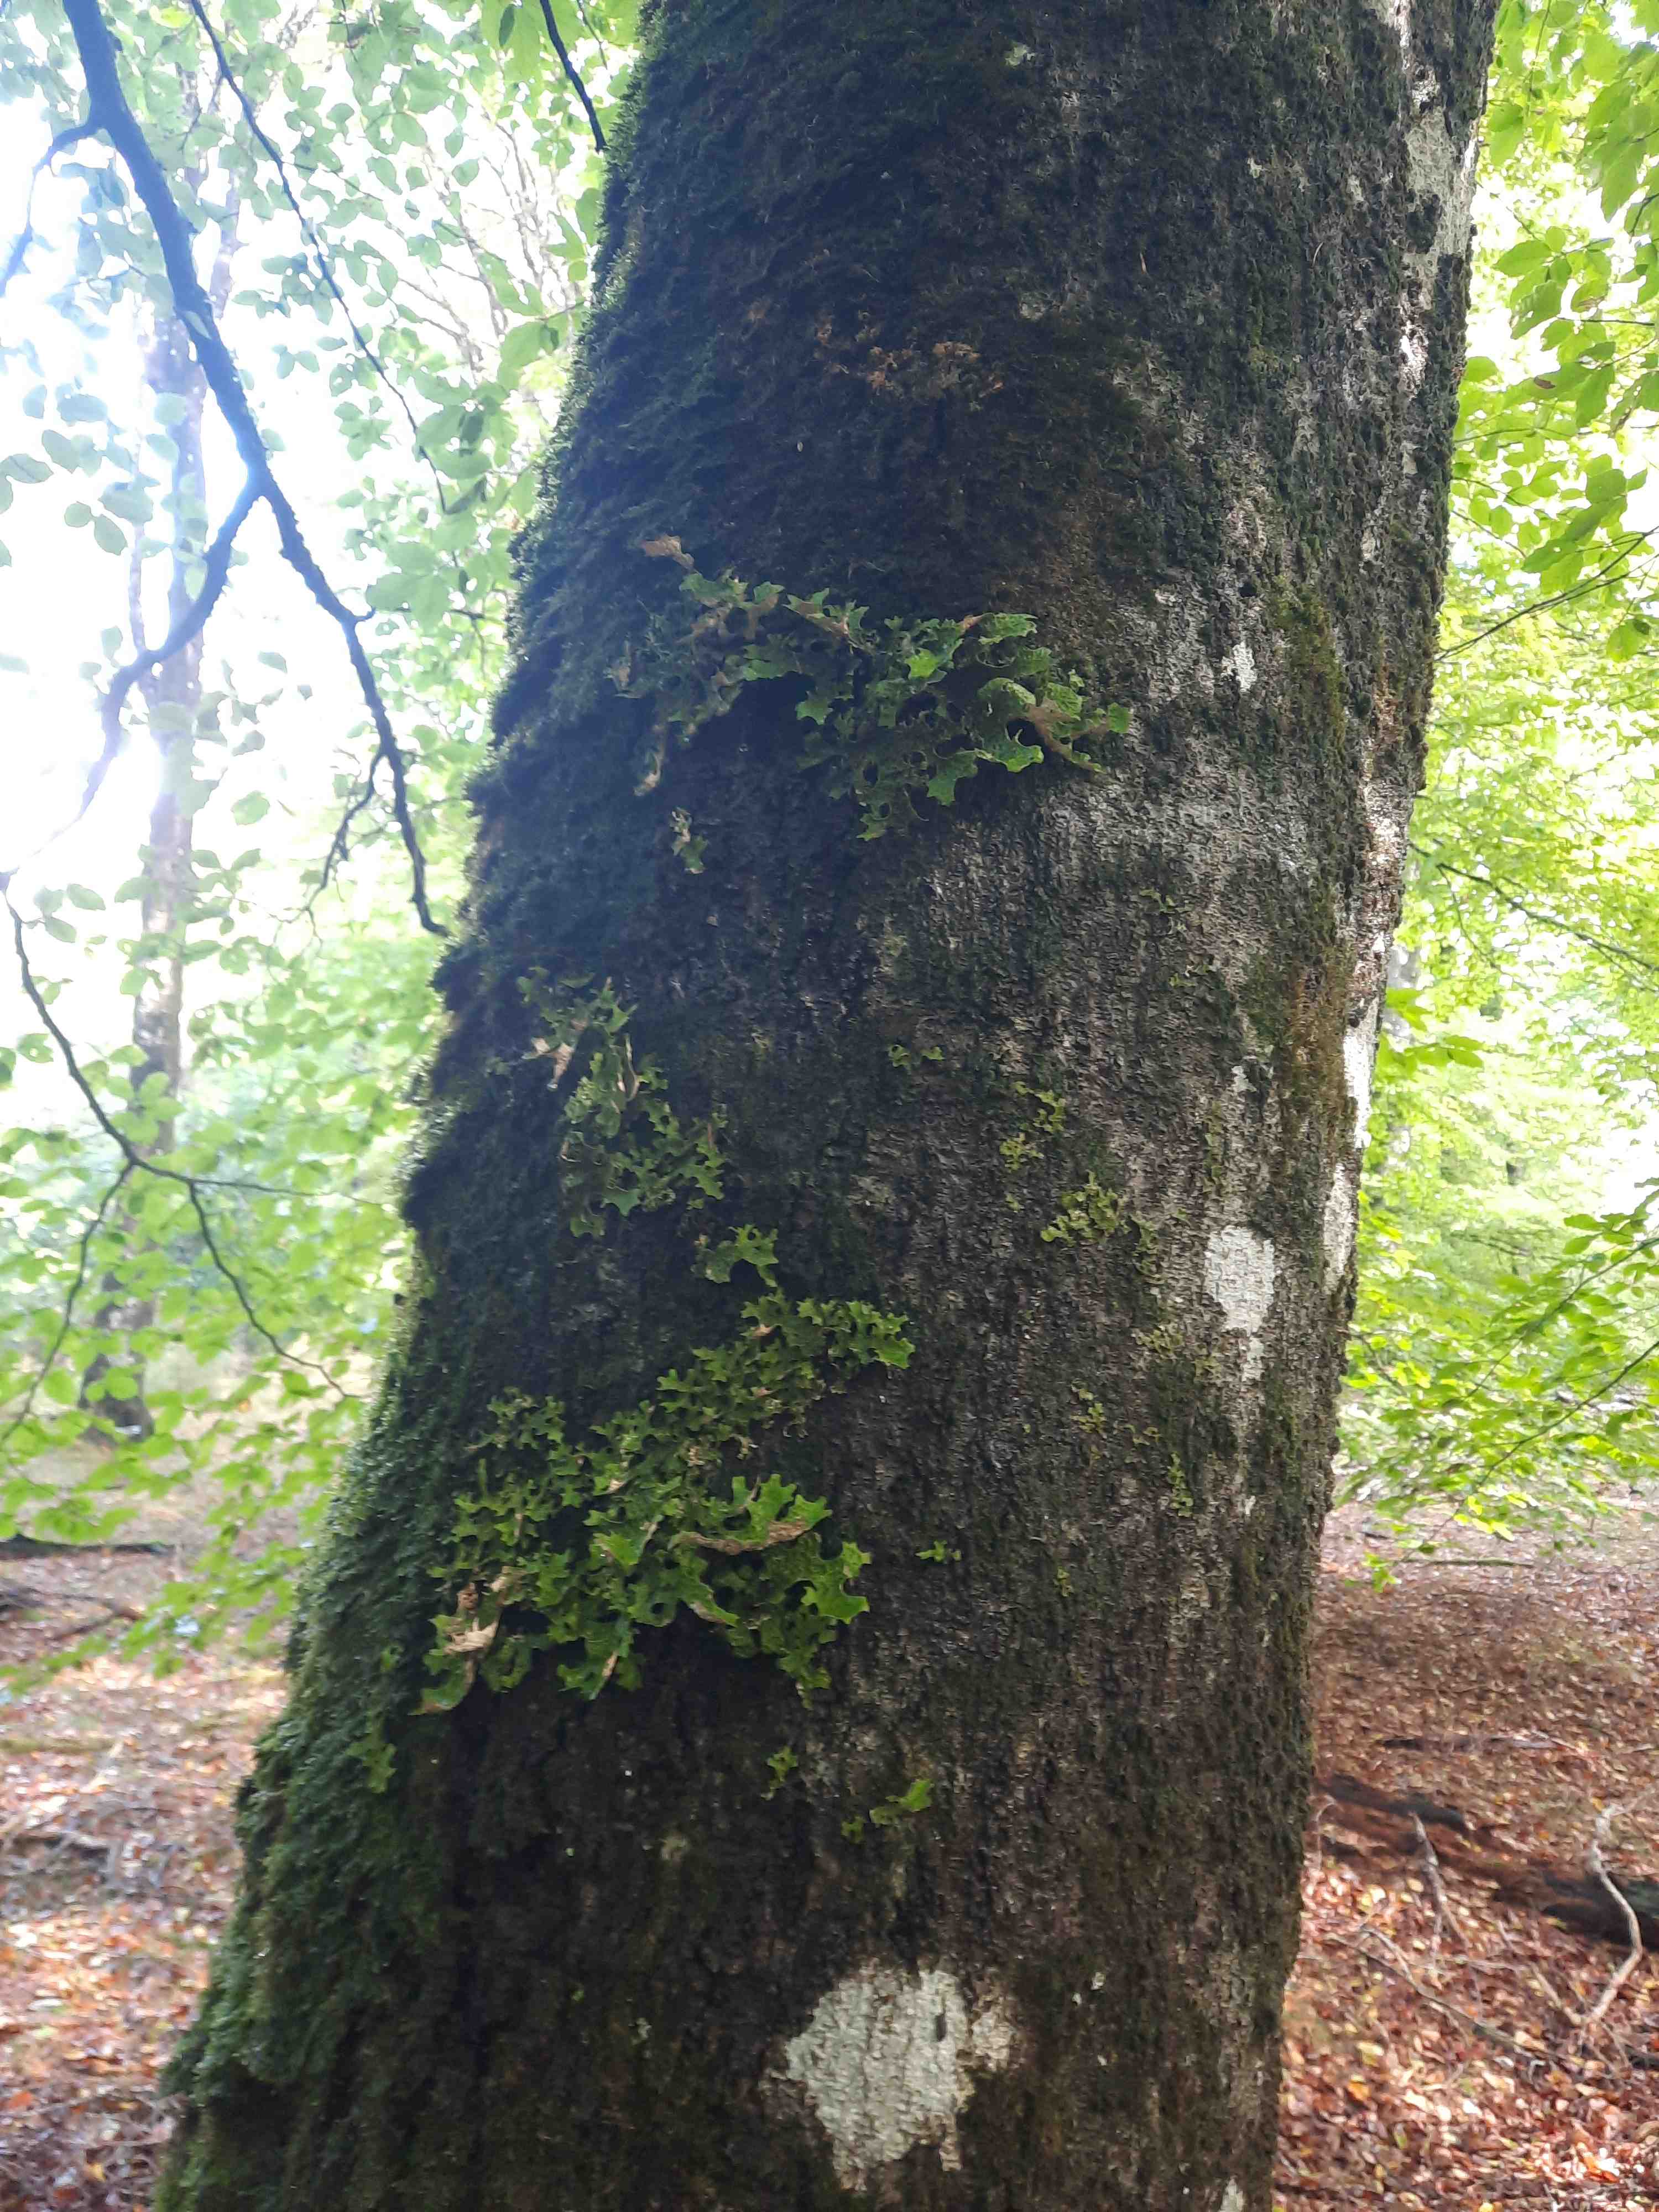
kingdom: Fungi
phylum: Ascomycota
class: Lecanoromycetes
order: Peltigerales
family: Lobariaceae
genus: Lobaria
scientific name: Lobaria pulmonaria
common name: almindelig lungelav
